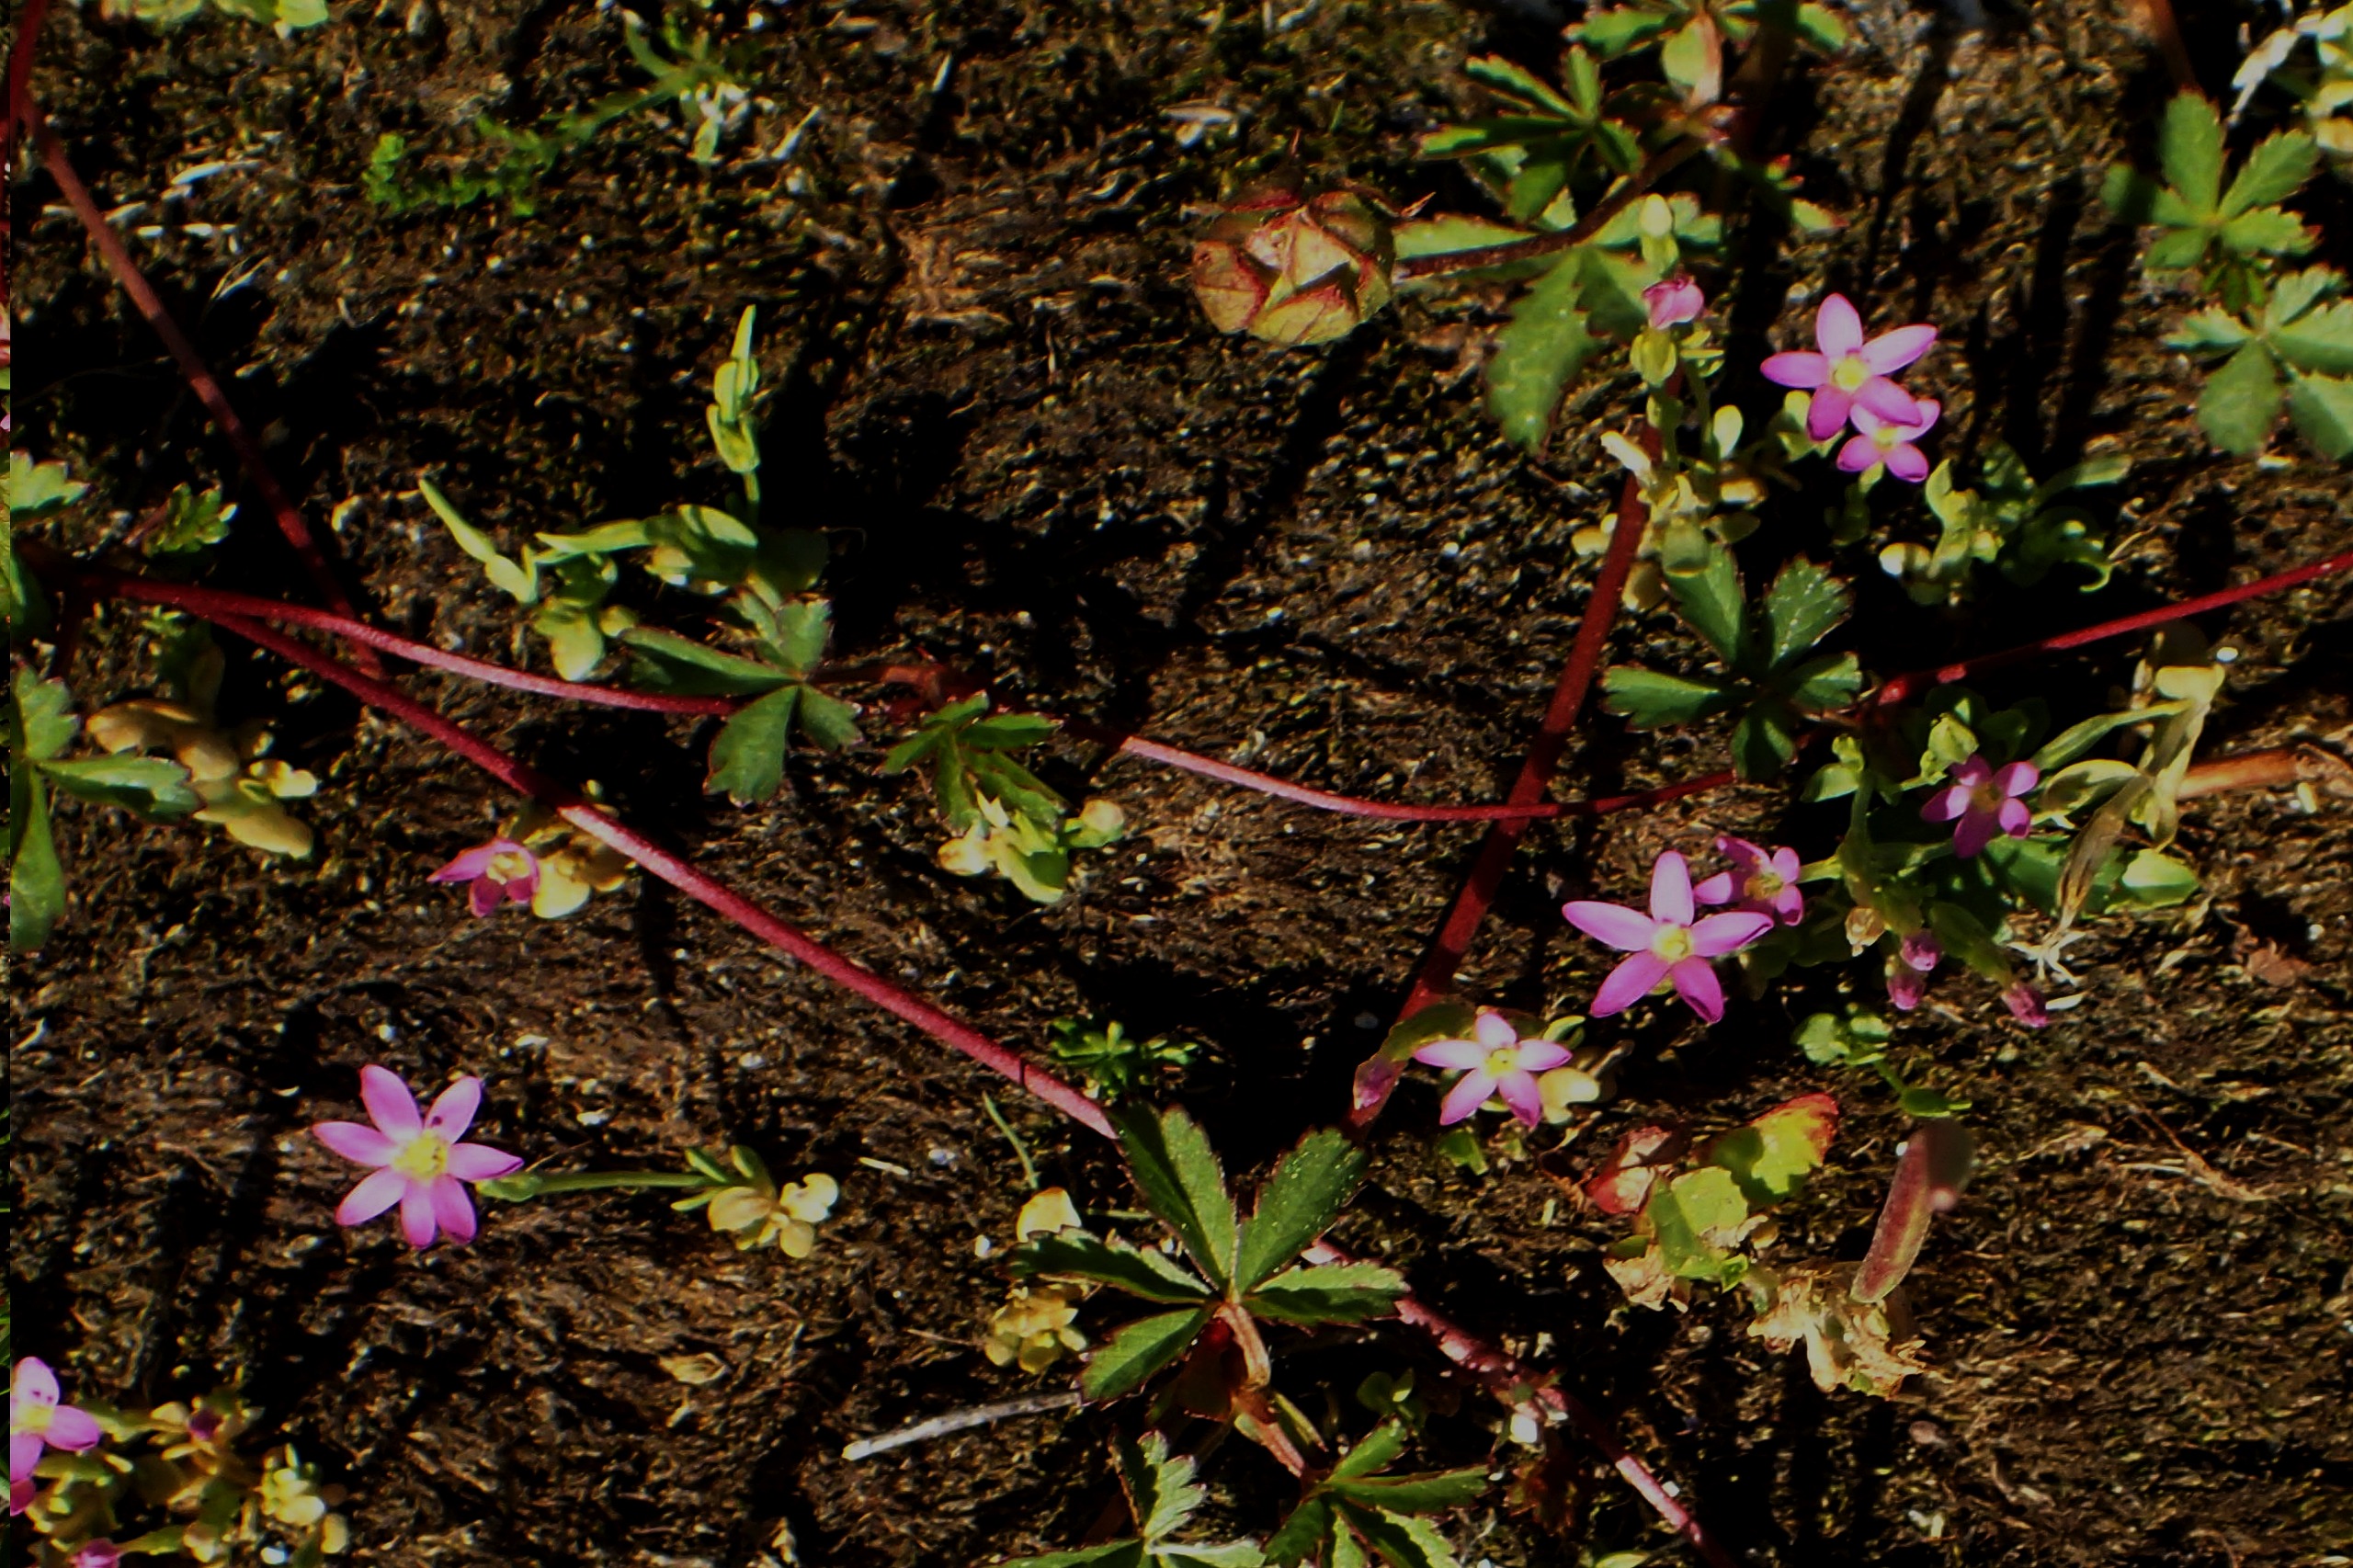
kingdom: Plantae
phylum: Tracheophyta
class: Magnoliopsida
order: Gentianales
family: Gentianaceae
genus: Centaurium
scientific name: Centaurium pulchellum
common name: Liden tusindgylden
